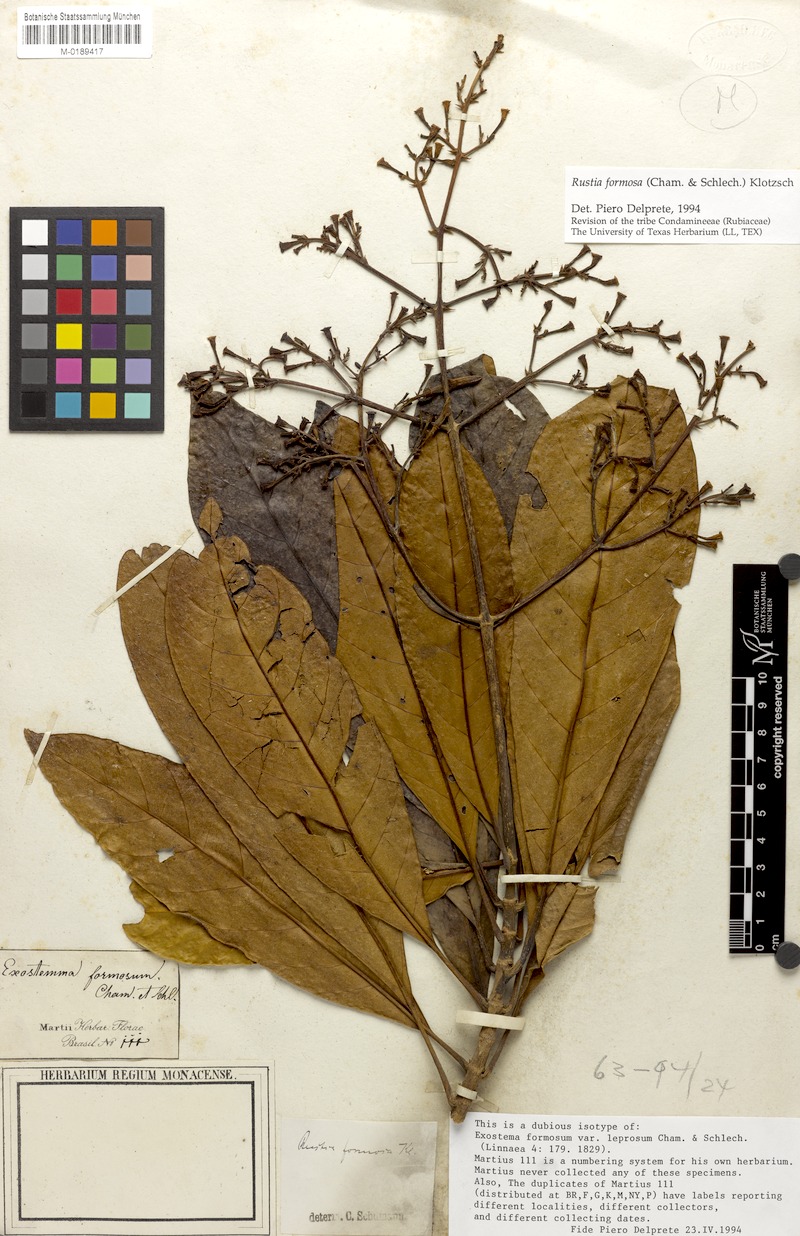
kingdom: Plantae
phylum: Tracheophyta
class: Magnoliopsida
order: Gentianales
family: Rubiaceae
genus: Rustia
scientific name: Rustia formosa
